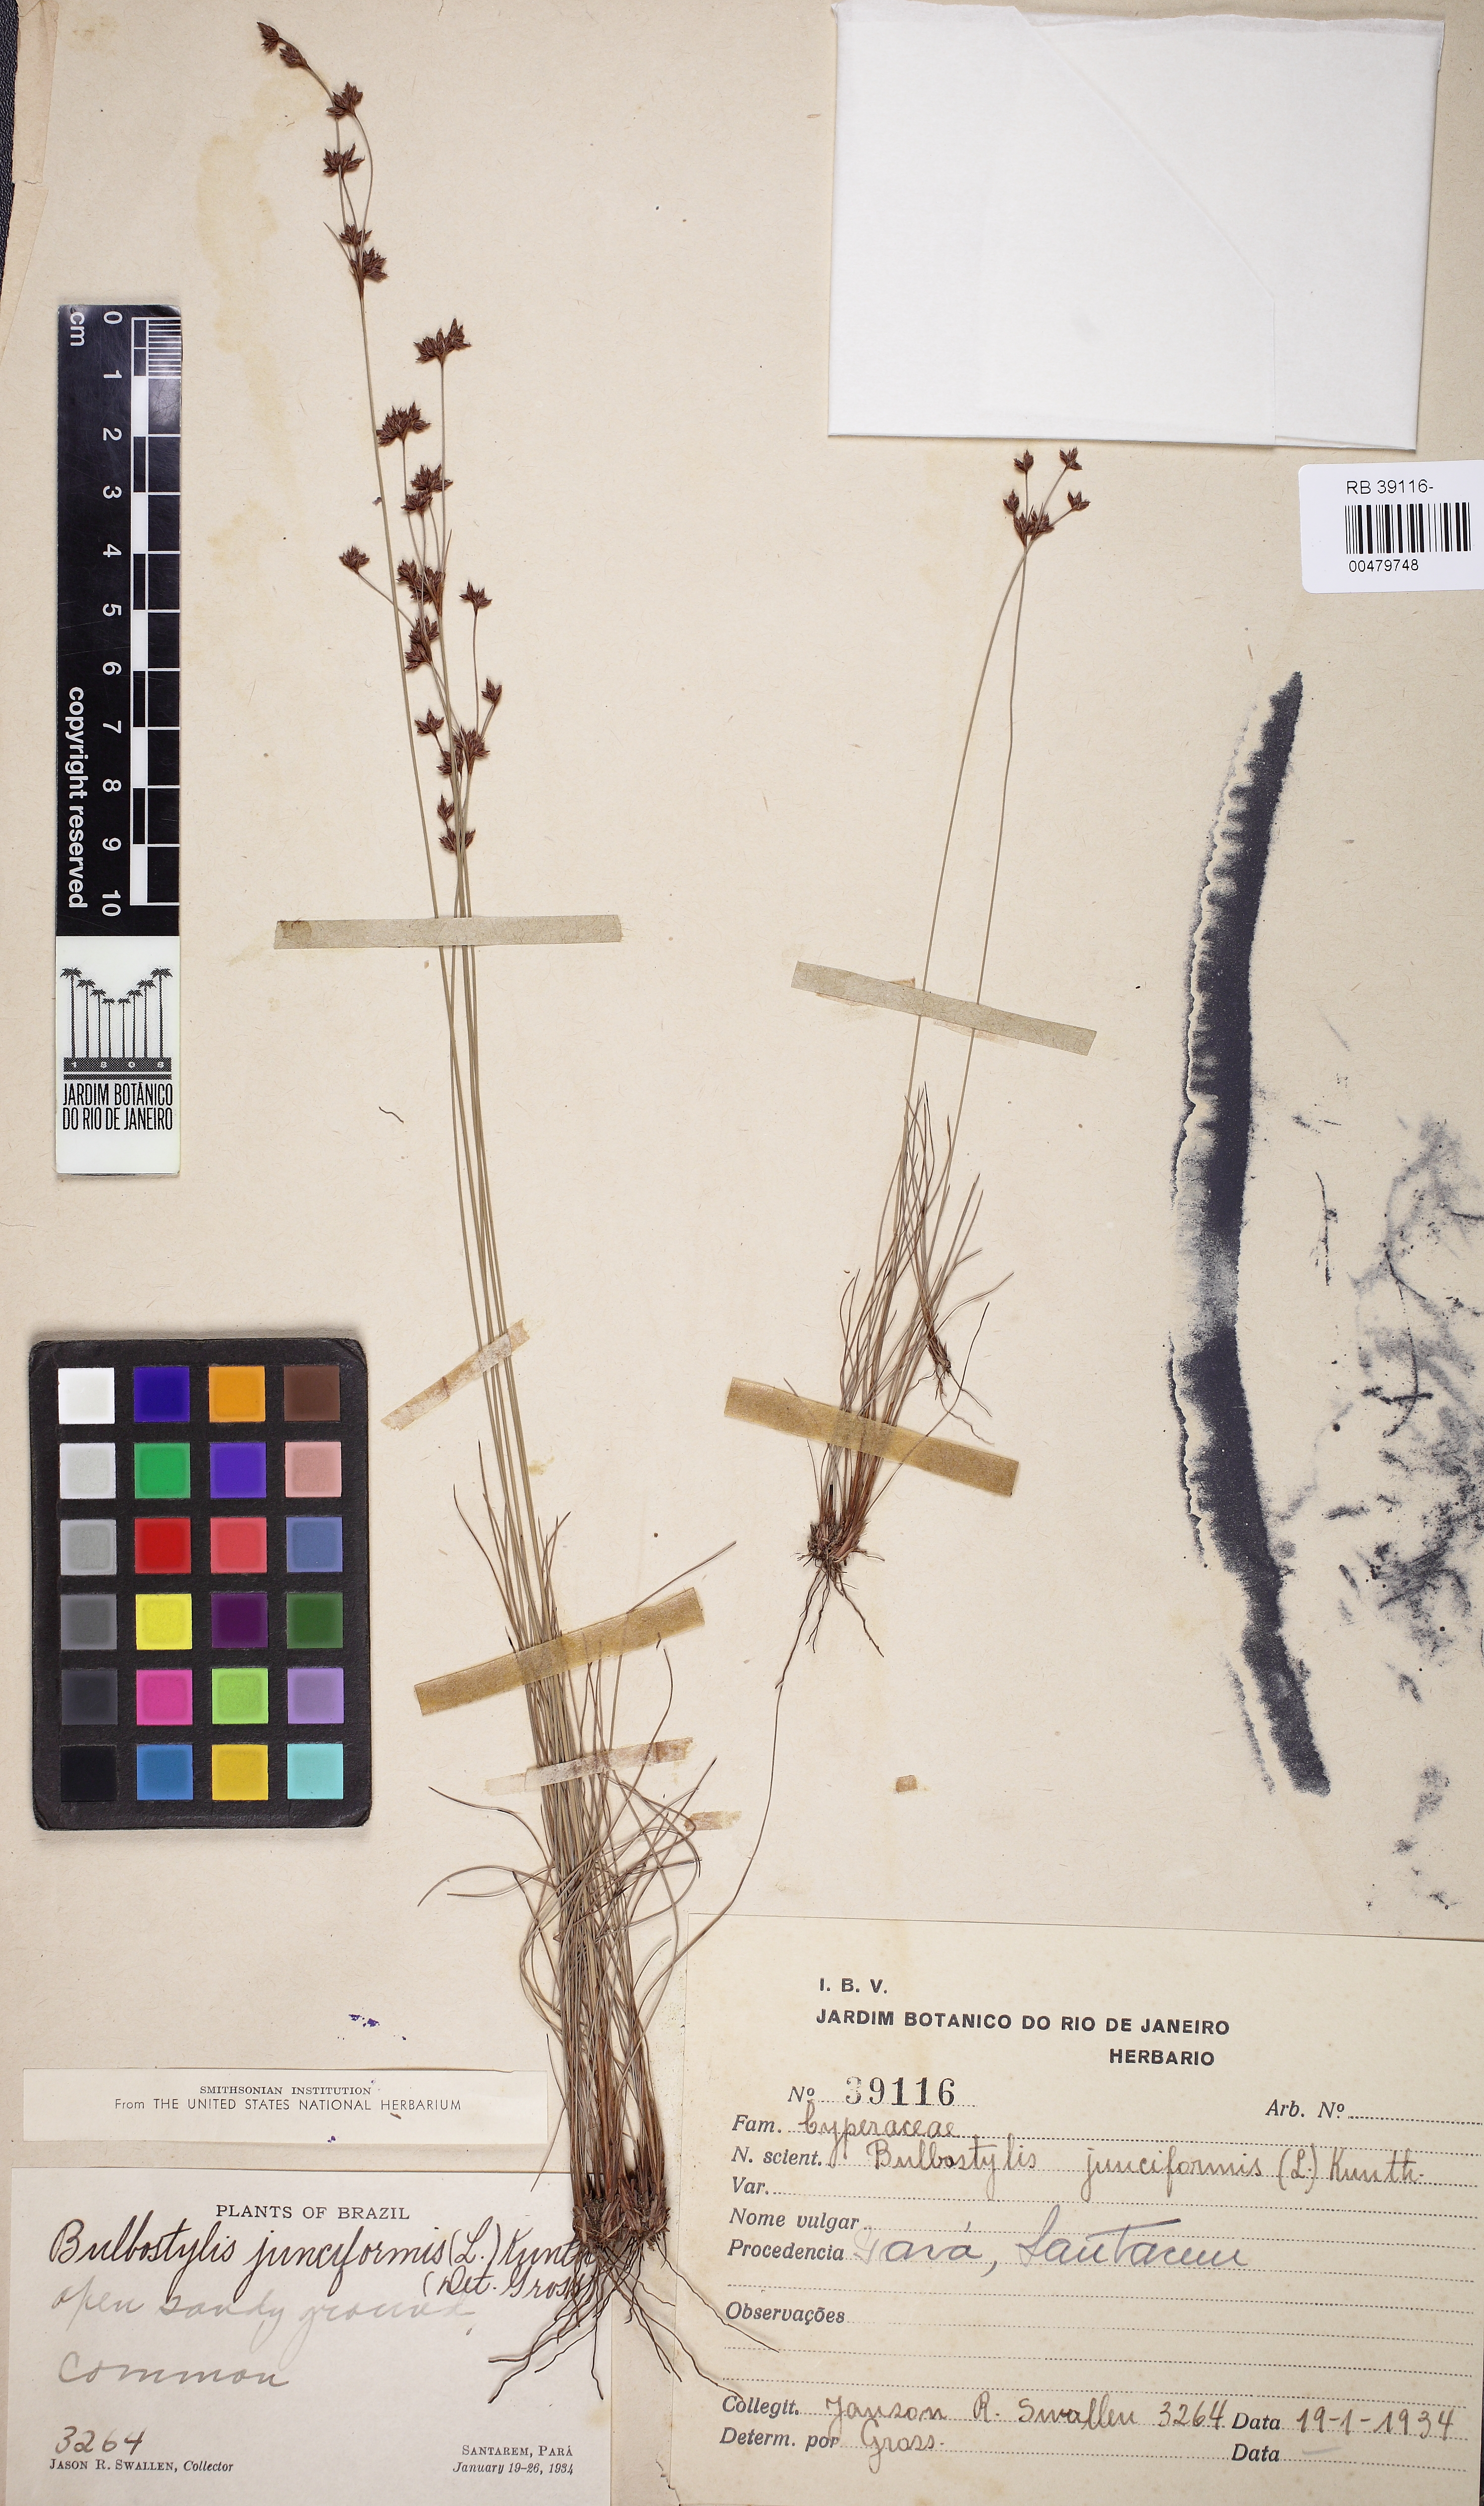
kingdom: Plantae
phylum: Tracheophyta
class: Liliopsida
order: Poales
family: Cyperaceae
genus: Bulbostylis
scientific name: Bulbostylis junciformis
